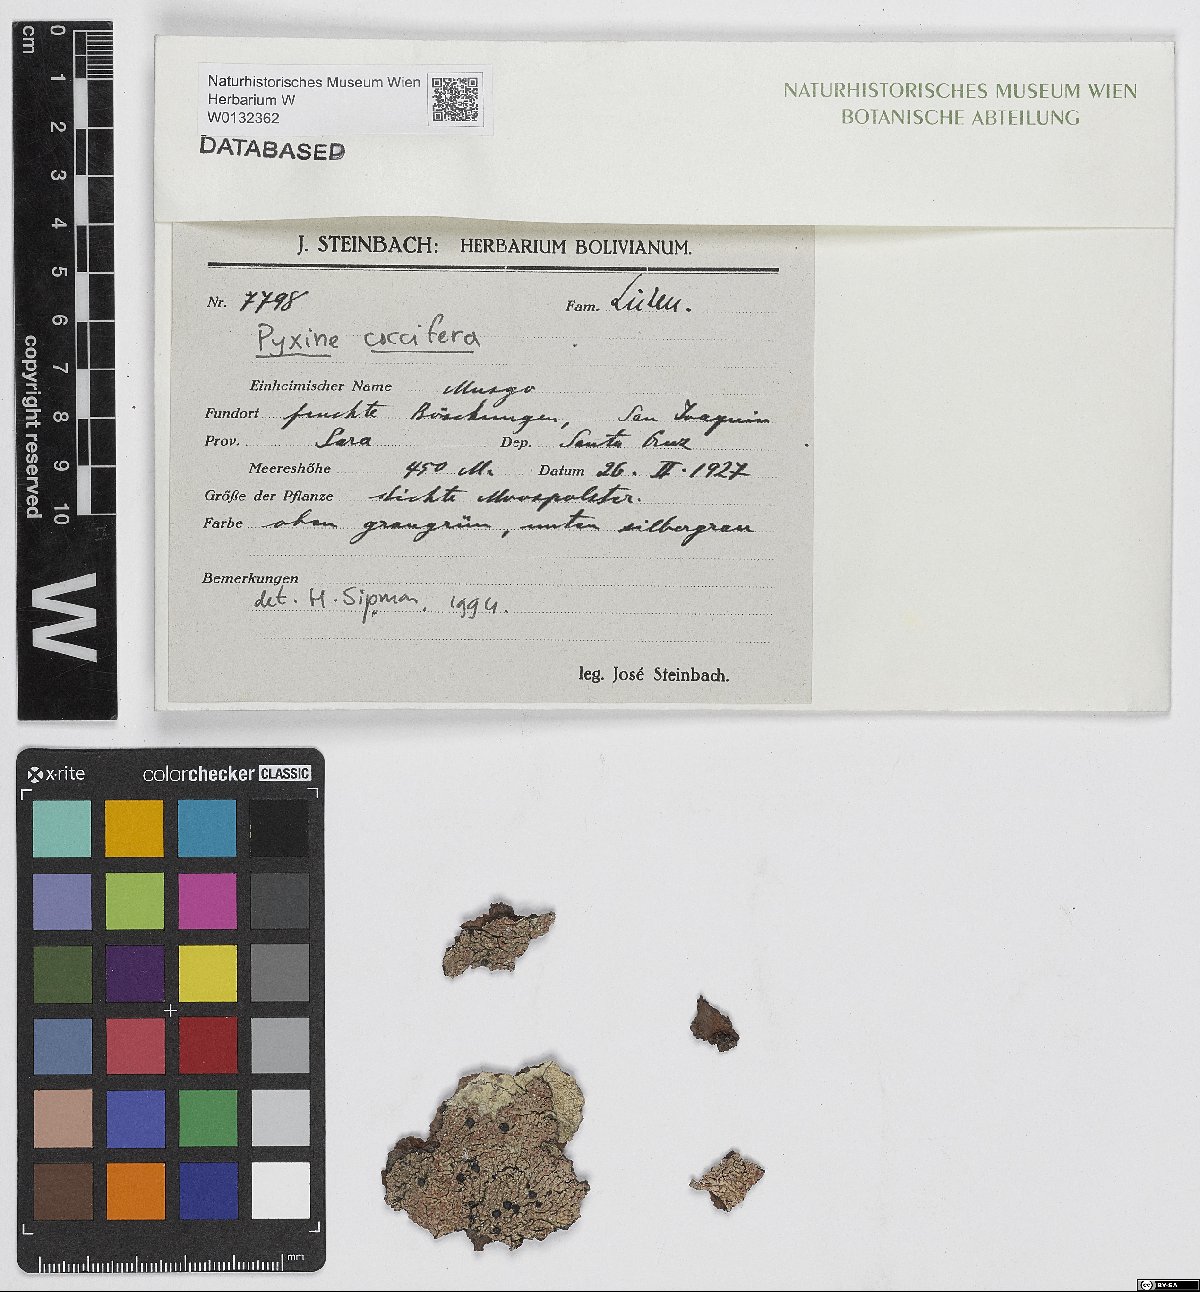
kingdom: Fungi
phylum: Ascomycota
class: Lecanoromycetes
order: Caliciales
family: Caliciaceae
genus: Pyxine
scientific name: Pyxine coccifera
